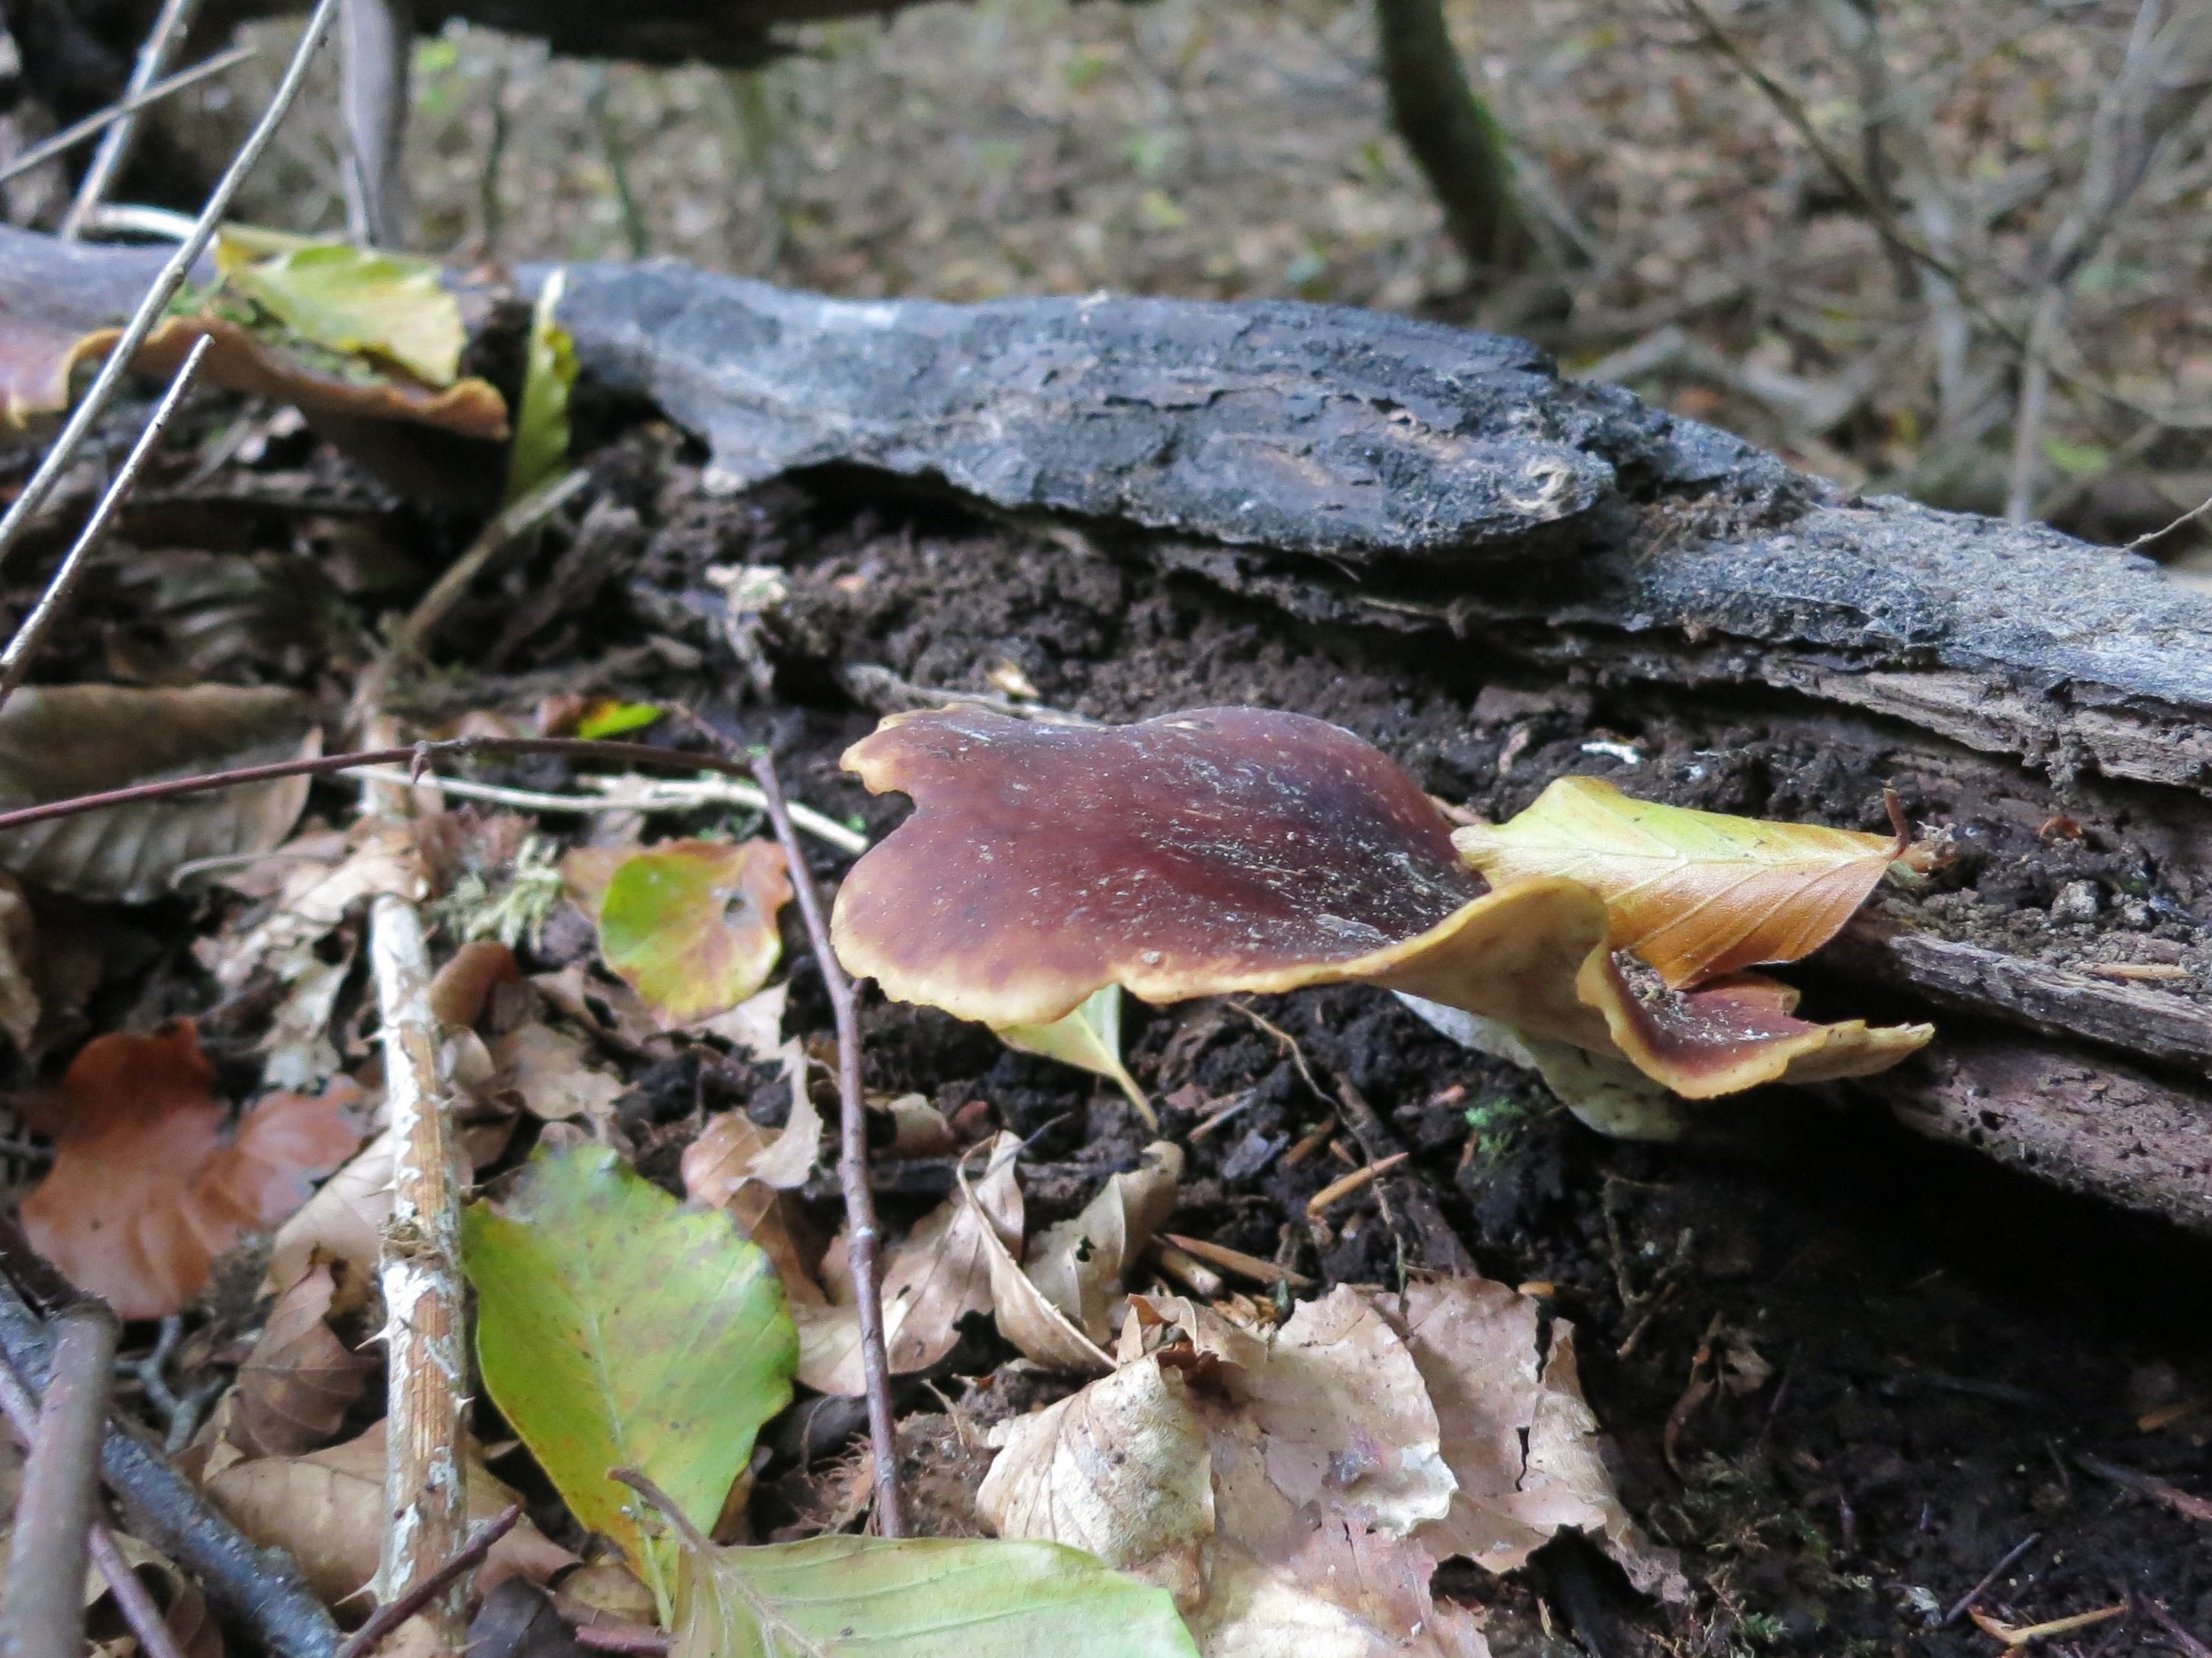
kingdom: Fungi
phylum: Basidiomycota
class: Agaricomycetes
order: Polyporales
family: Polyporaceae
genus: Picipes
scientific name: Picipes badius
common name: kastaniebrun stilkporesvamp
